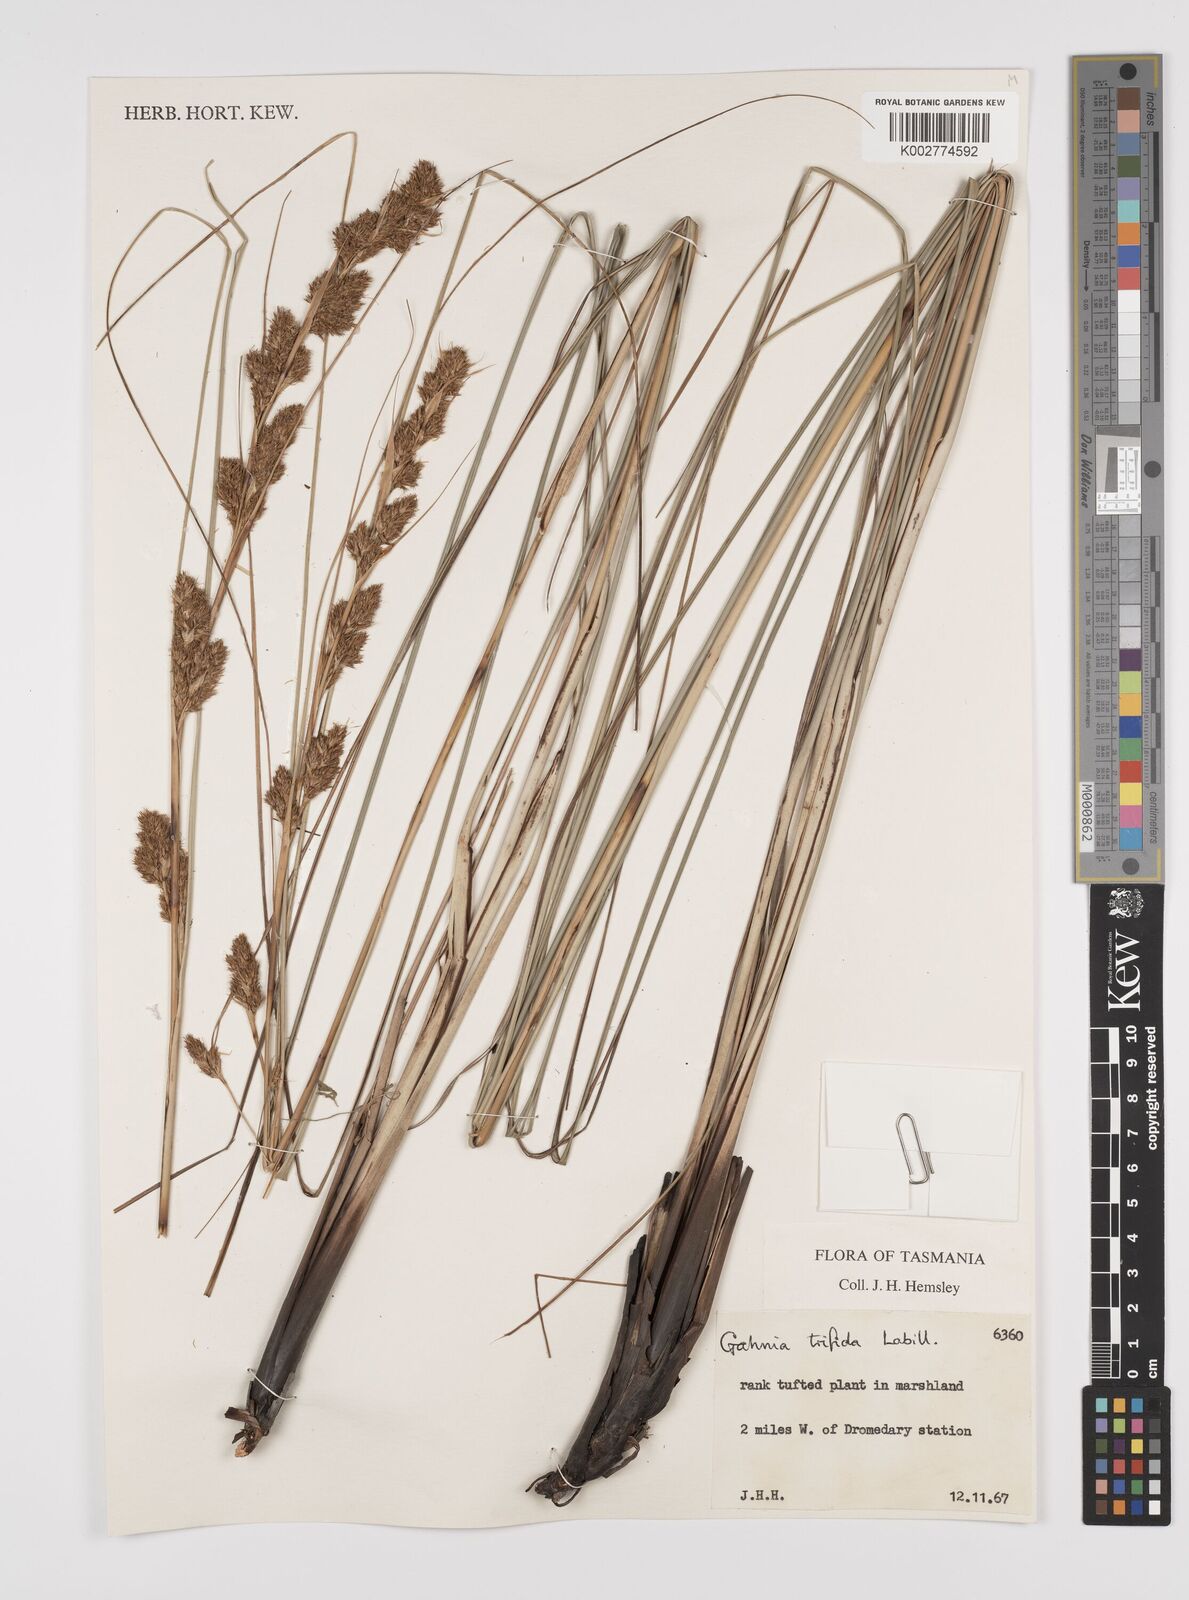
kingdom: Plantae
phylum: Tracheophyta
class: Liliopsida
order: Poales
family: Cyperaceae
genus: Gahnia
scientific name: Gahnia trifida
